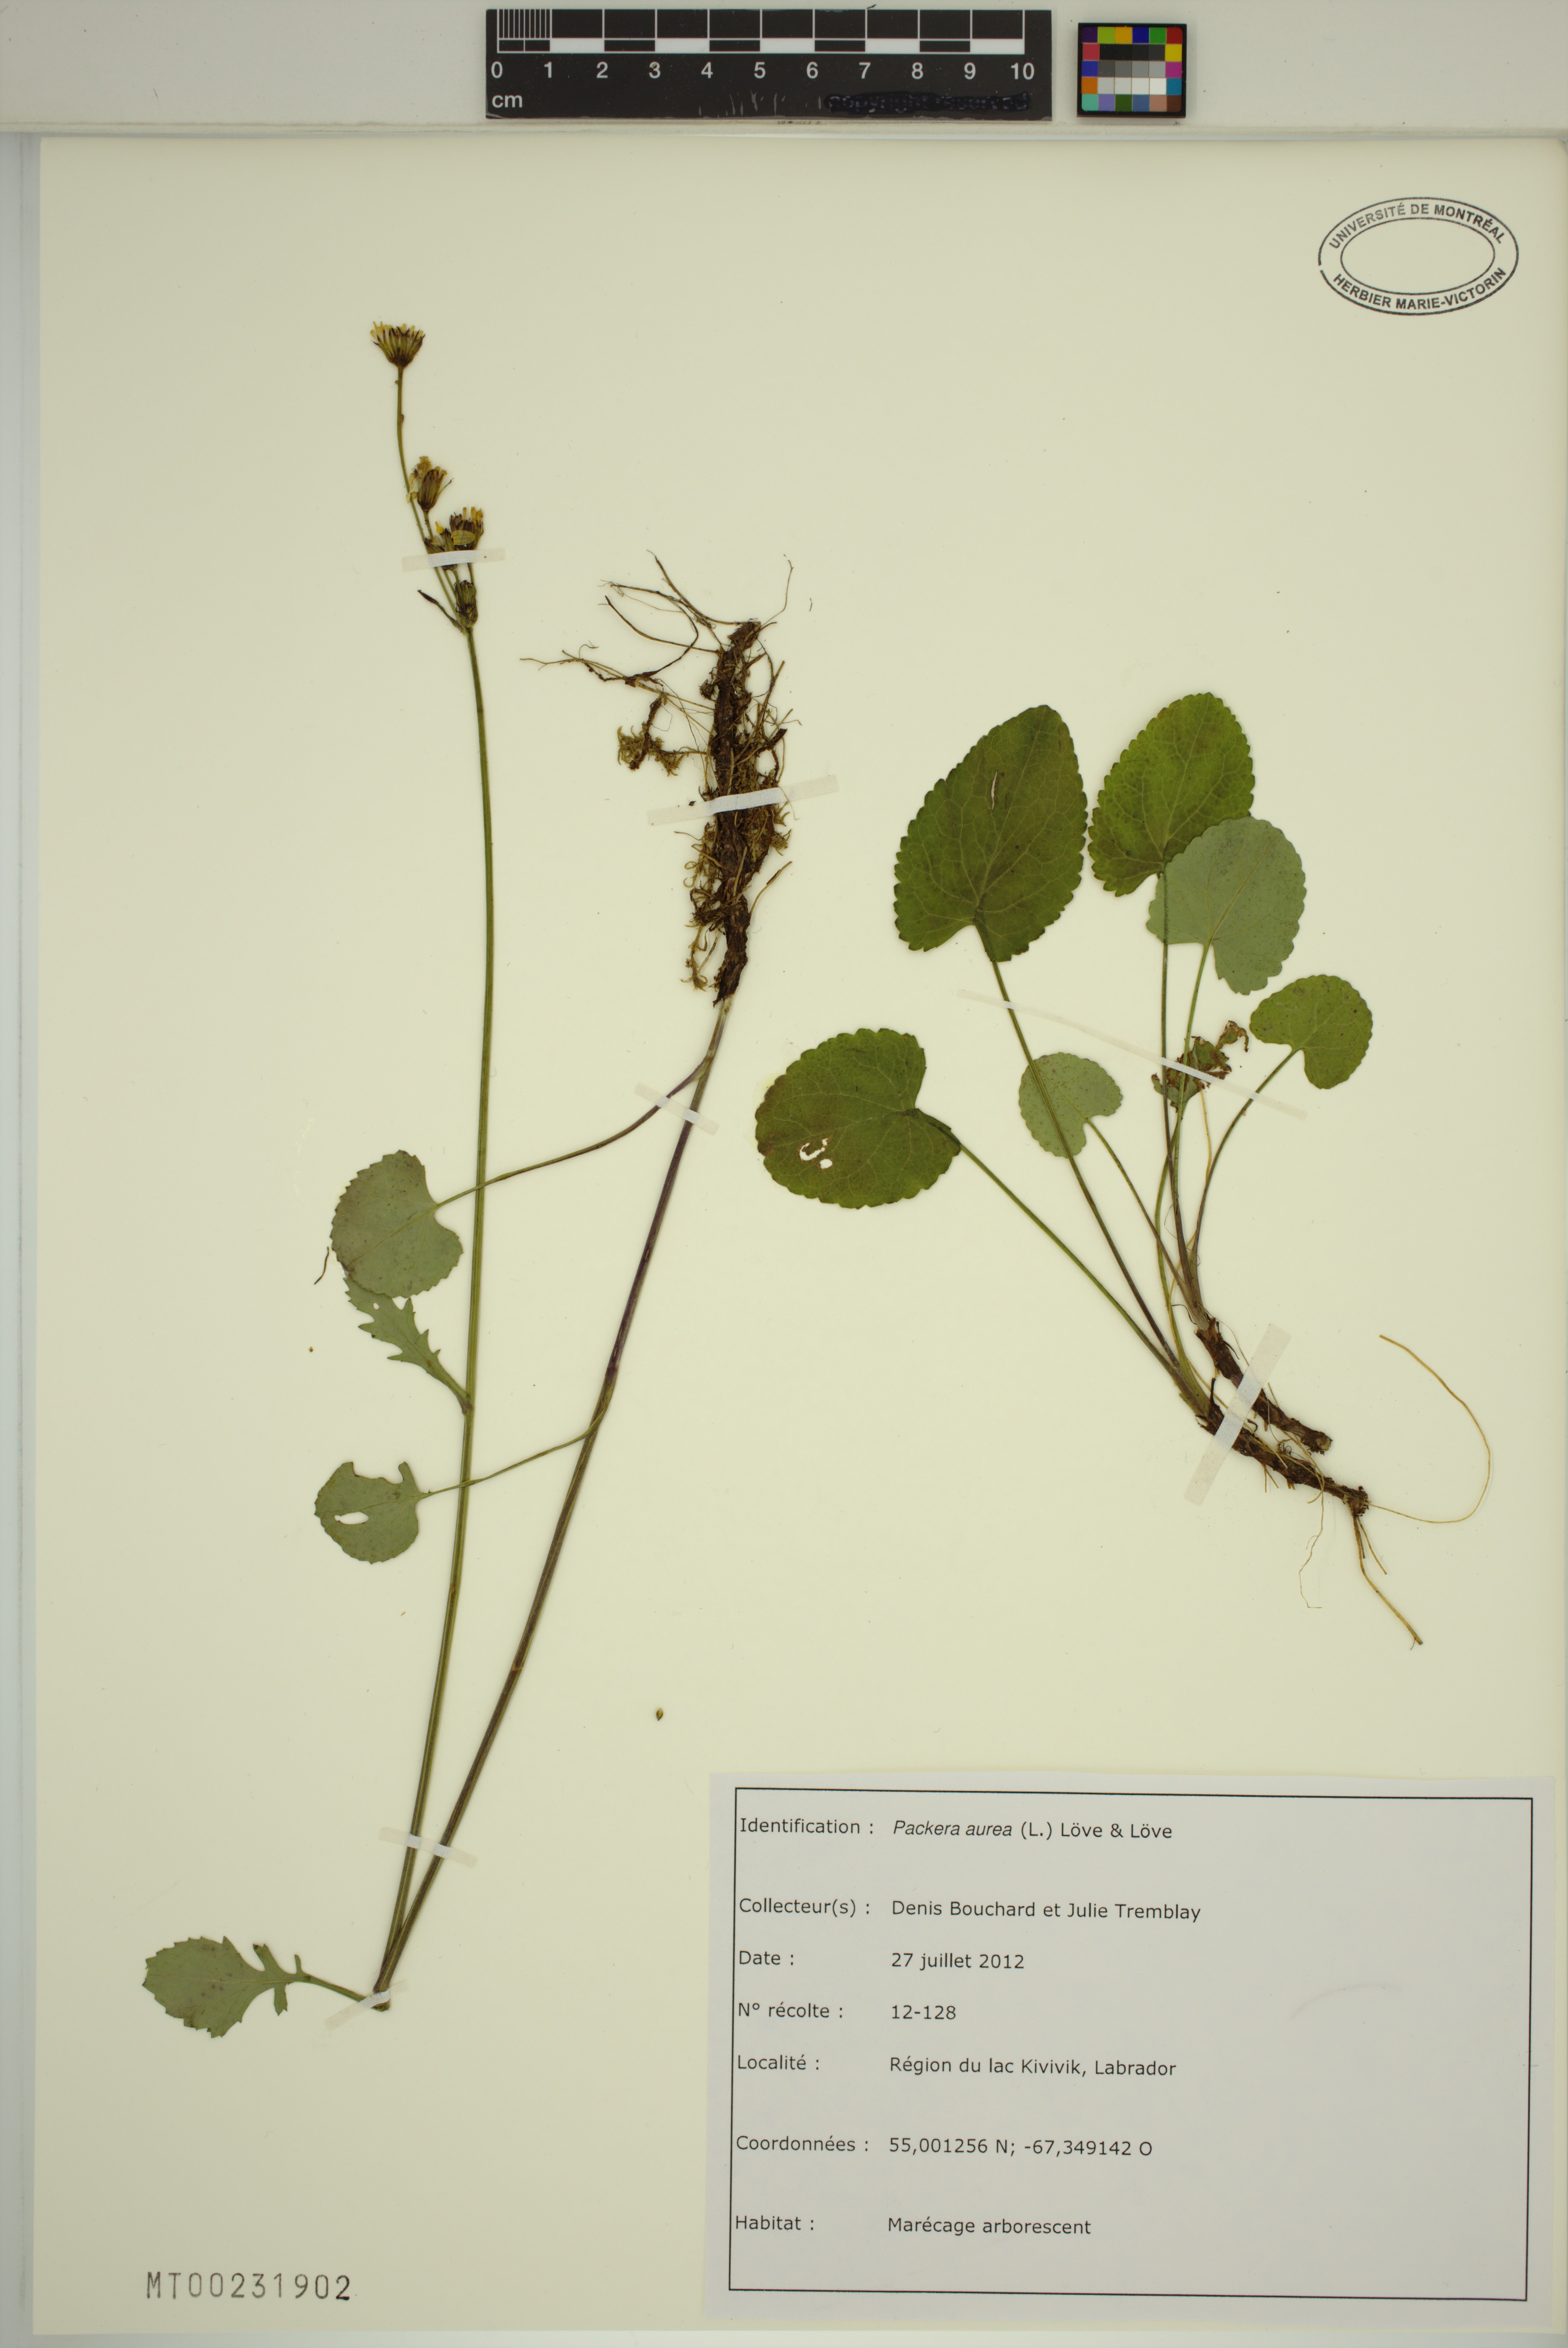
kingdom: Plantae
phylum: Tracheophyta
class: Magnoliopsida
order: Asterales
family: Asteraceae
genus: Packera
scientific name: Packera aurea
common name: Golden groundsel
